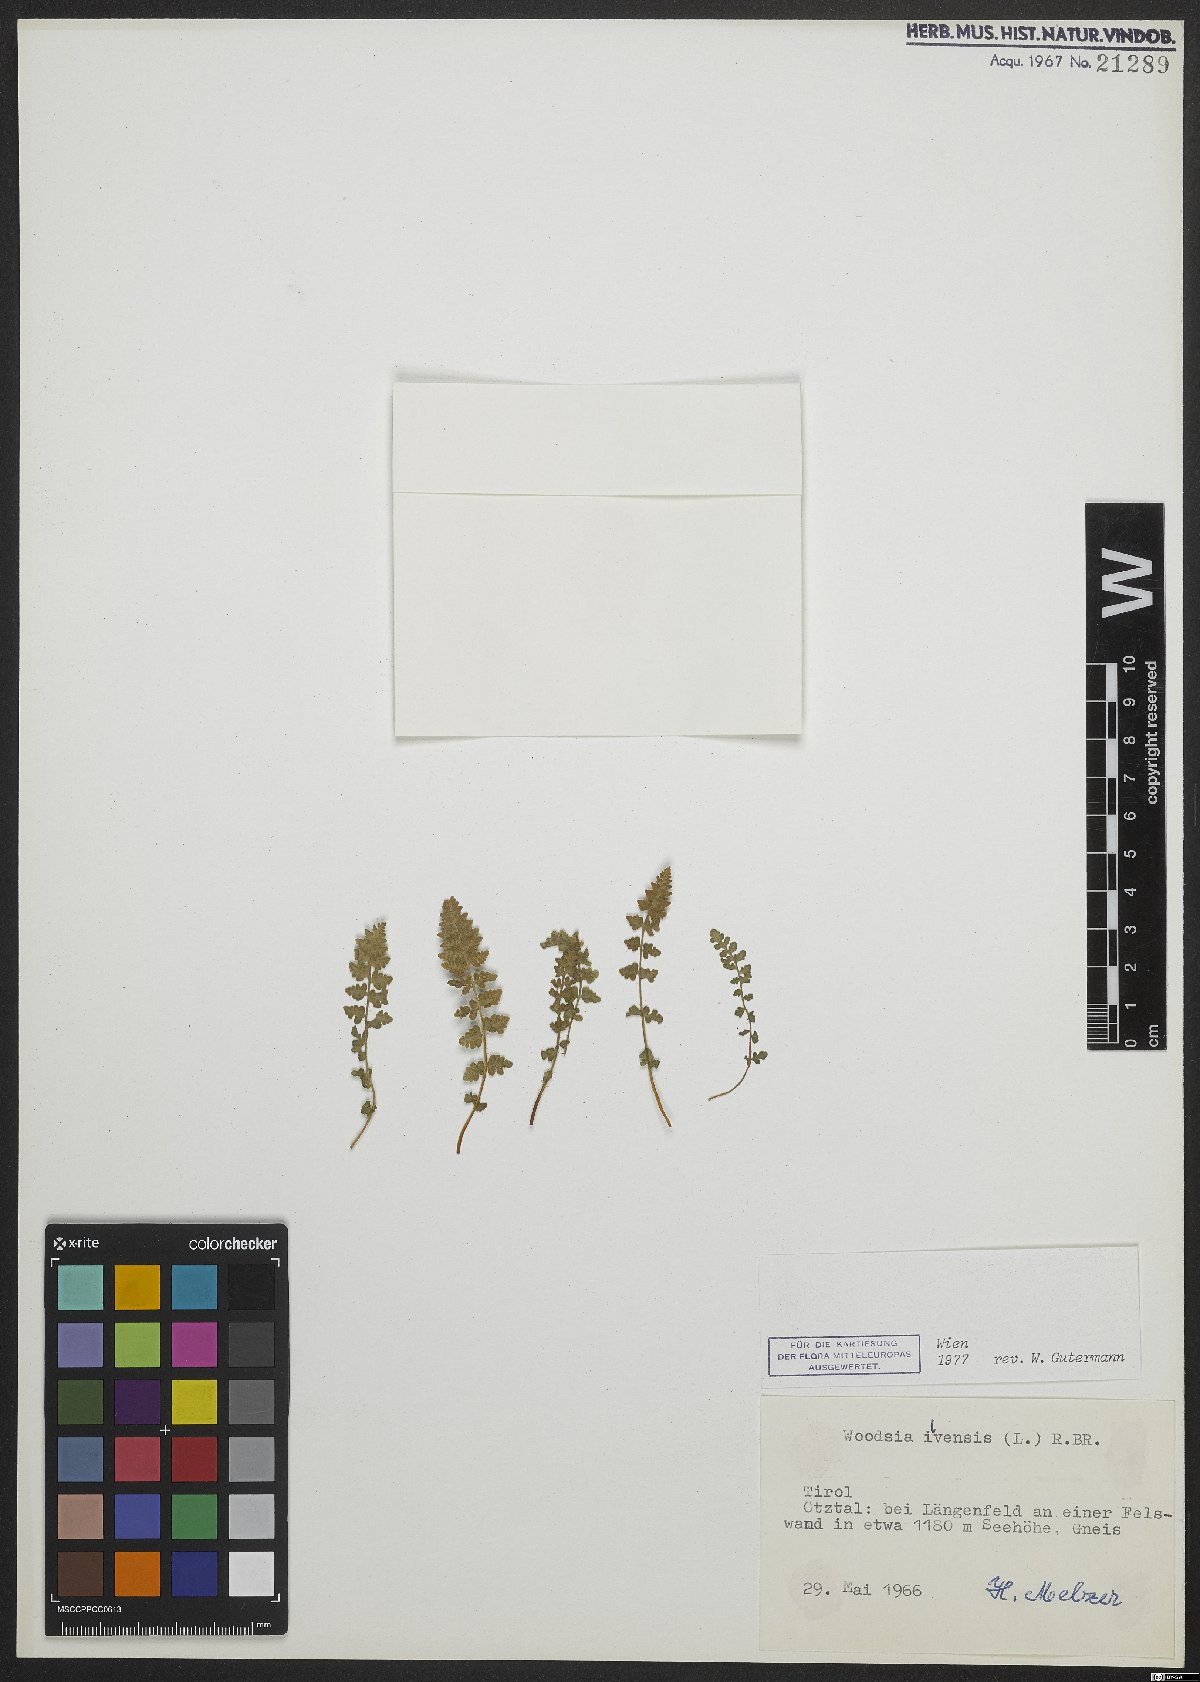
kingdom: Plantae
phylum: Tracheophyta
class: Polypodiopsida
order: Polypodiales
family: Woodsiaceae
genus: Woodsia
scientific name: Woodsia ilvensis
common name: Fragrant woodsia
